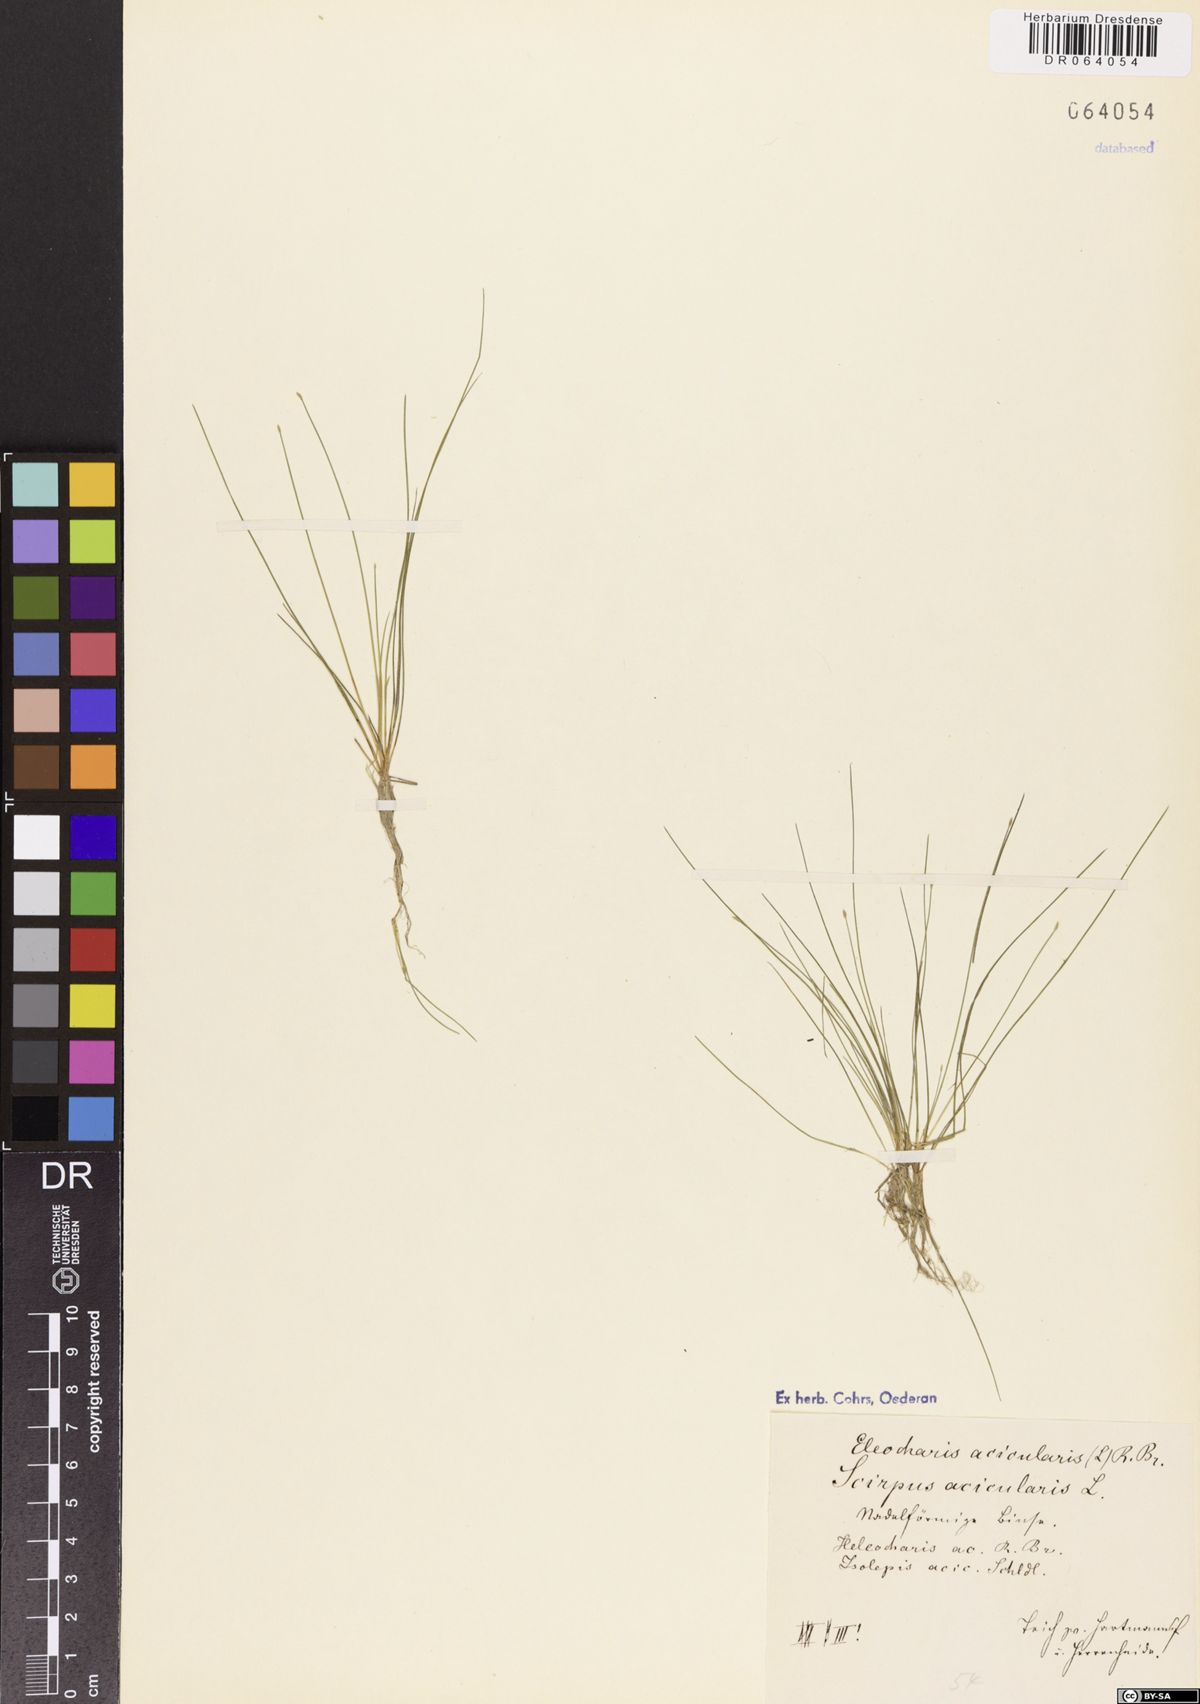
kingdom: Plantae
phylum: Tracheophyta
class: Liliopsida
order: Poales
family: Cyperaceae
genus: Eleocharis
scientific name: Eleocharis acicularis
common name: Needle spike-rush
